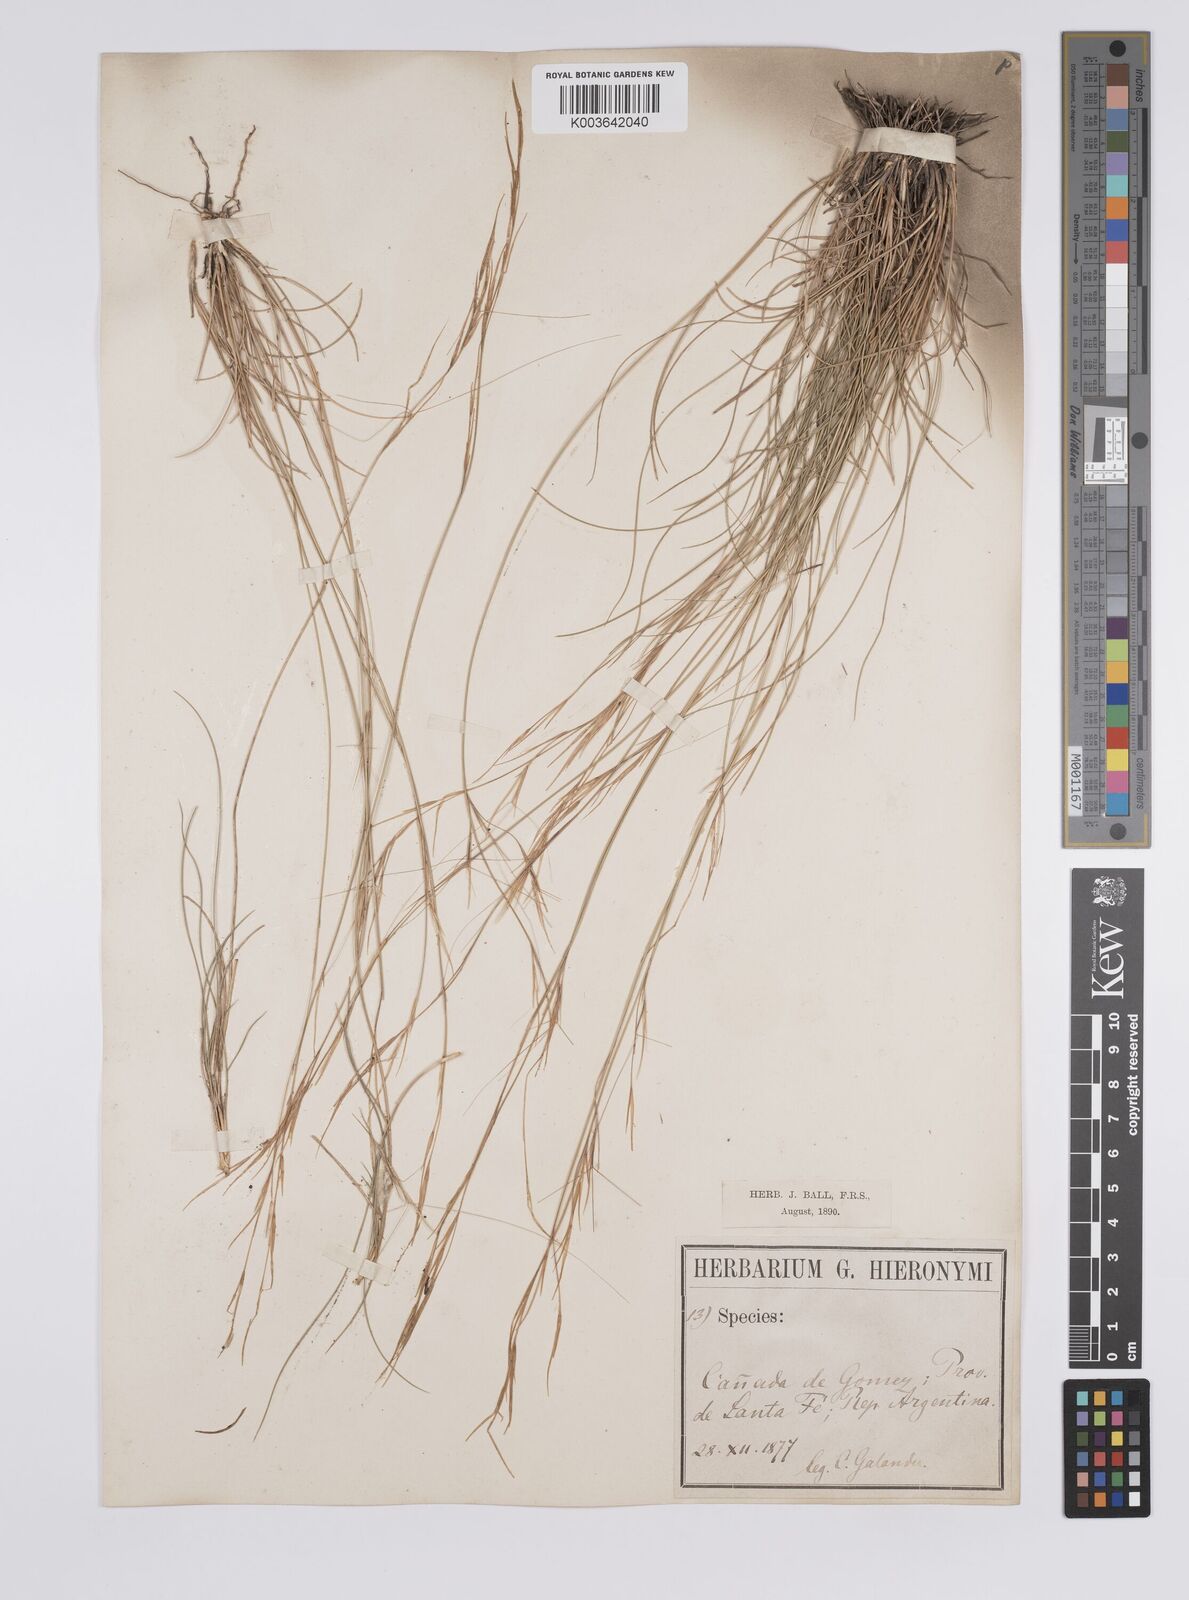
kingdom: Plantae
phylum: Tracheophyta
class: Liliopsida
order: Poales
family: Poaceae
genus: Aristida
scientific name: Aristida pallens
